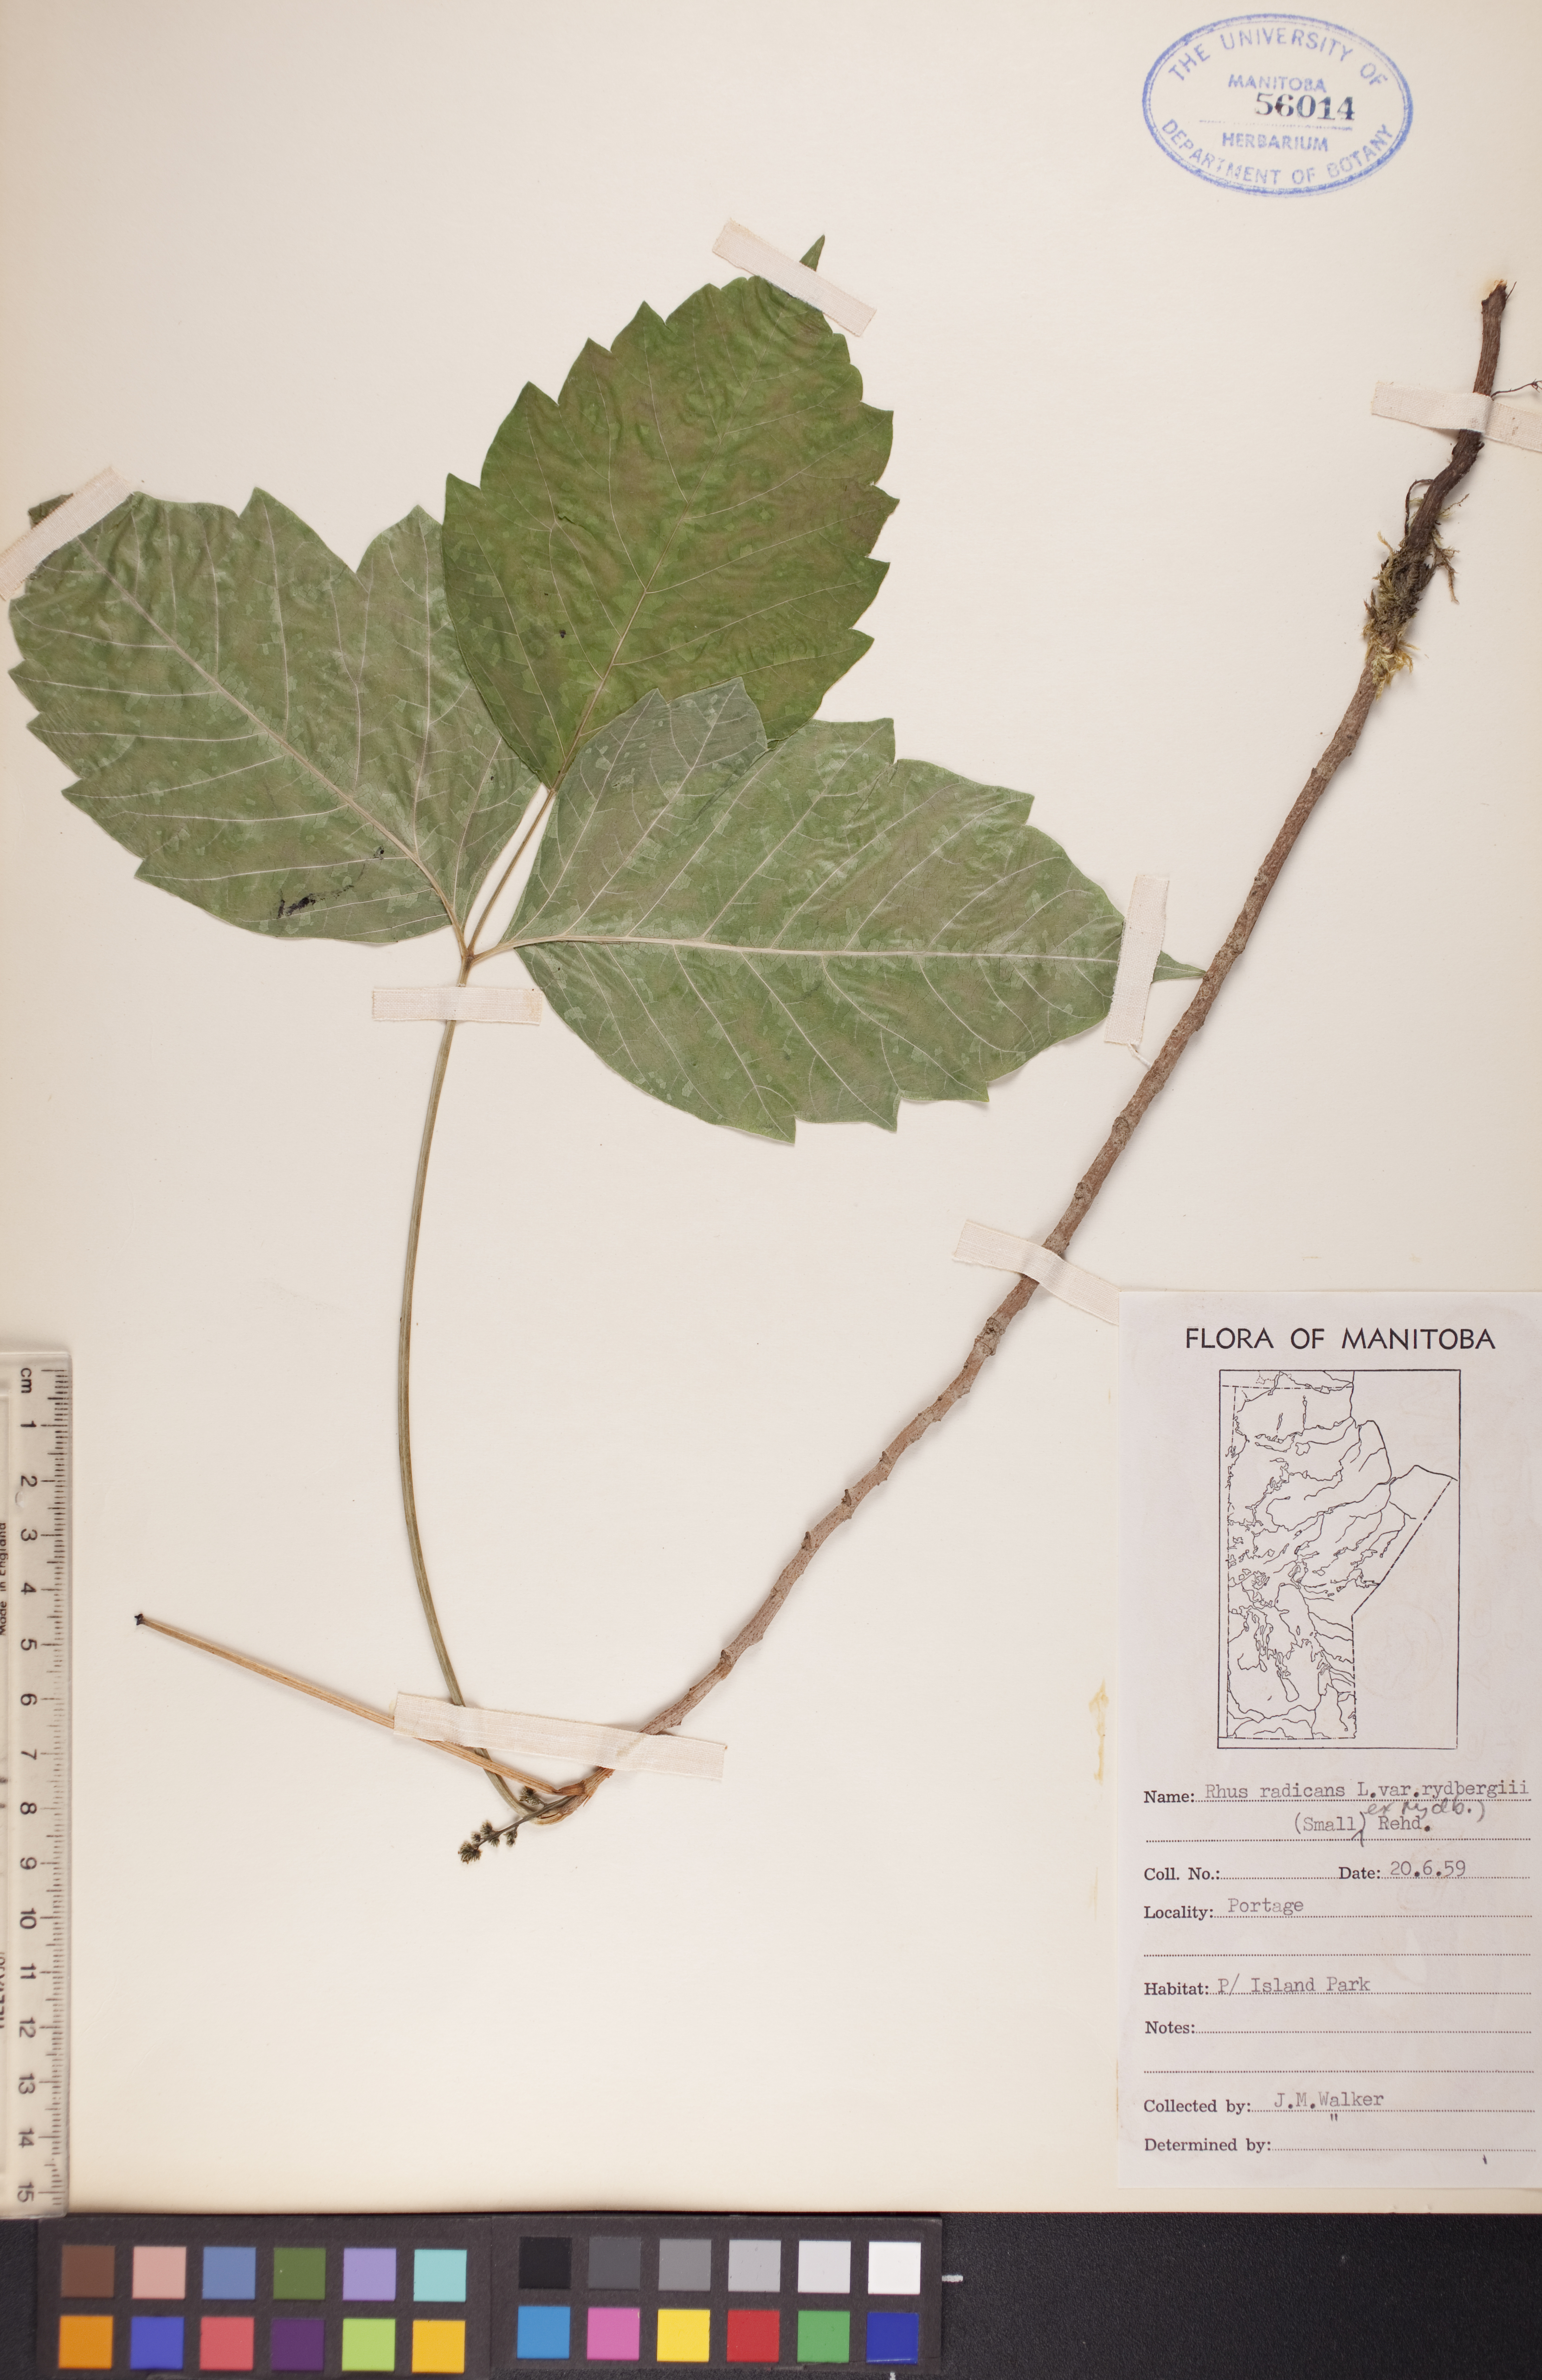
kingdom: Plantae
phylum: Tracheophyta
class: Magnoliopsida
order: Sapindales
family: Anacardiaceae
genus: Toxicodendron
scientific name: Toxicodendron radicans
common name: Poison ivy
